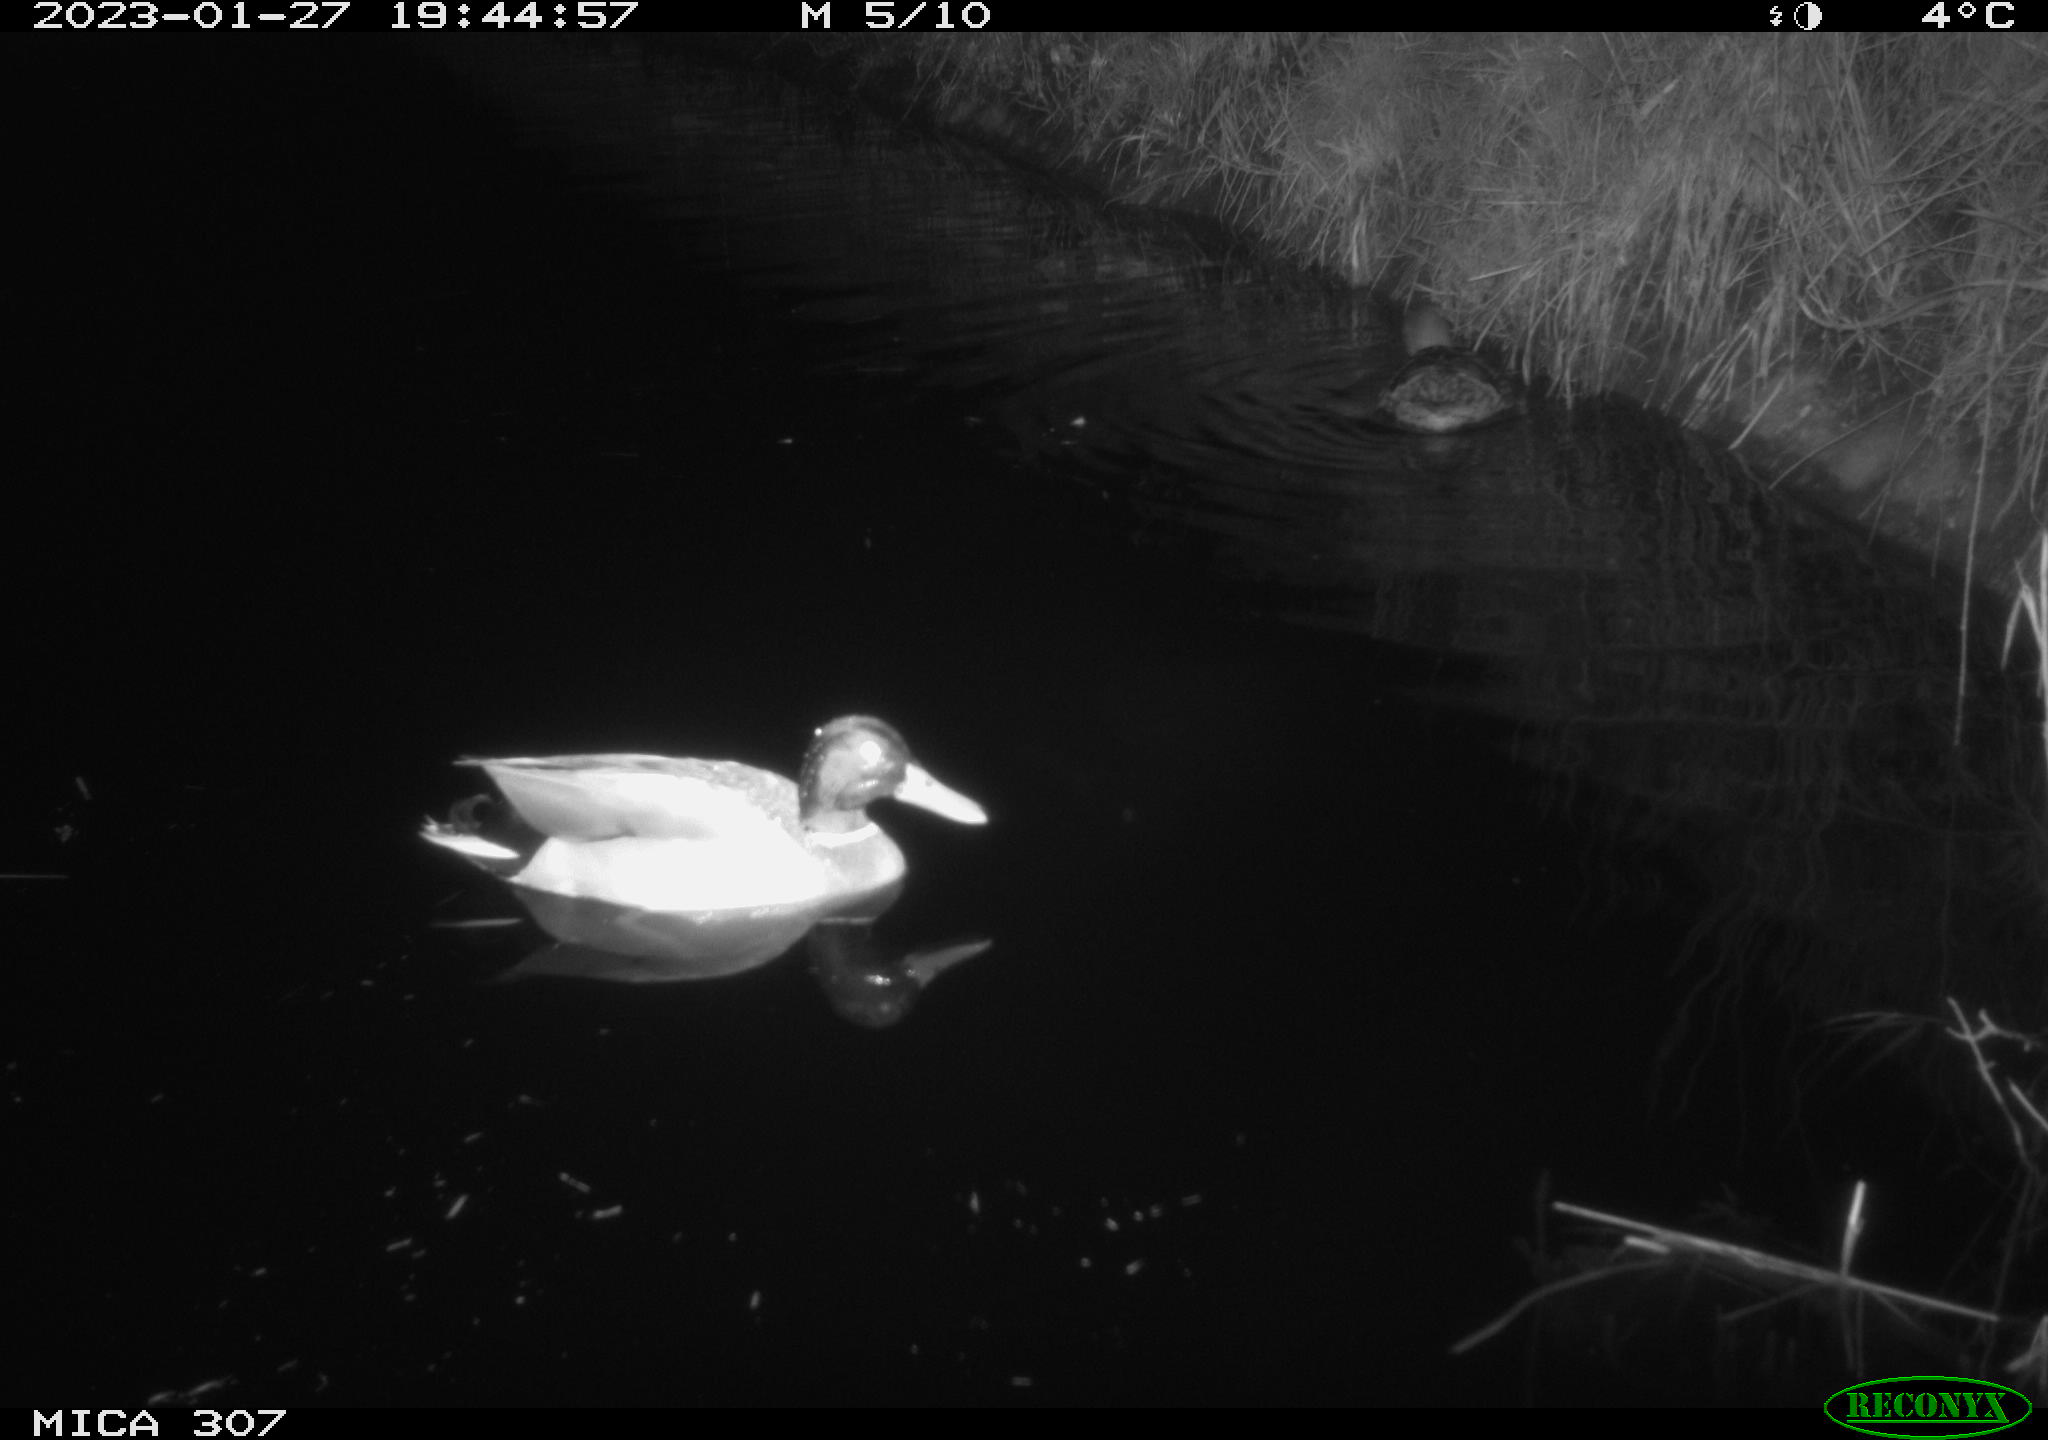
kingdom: Animalia
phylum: Chordata
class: Aves
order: Anseriformes
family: Anatidae
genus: Anas
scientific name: Anas
